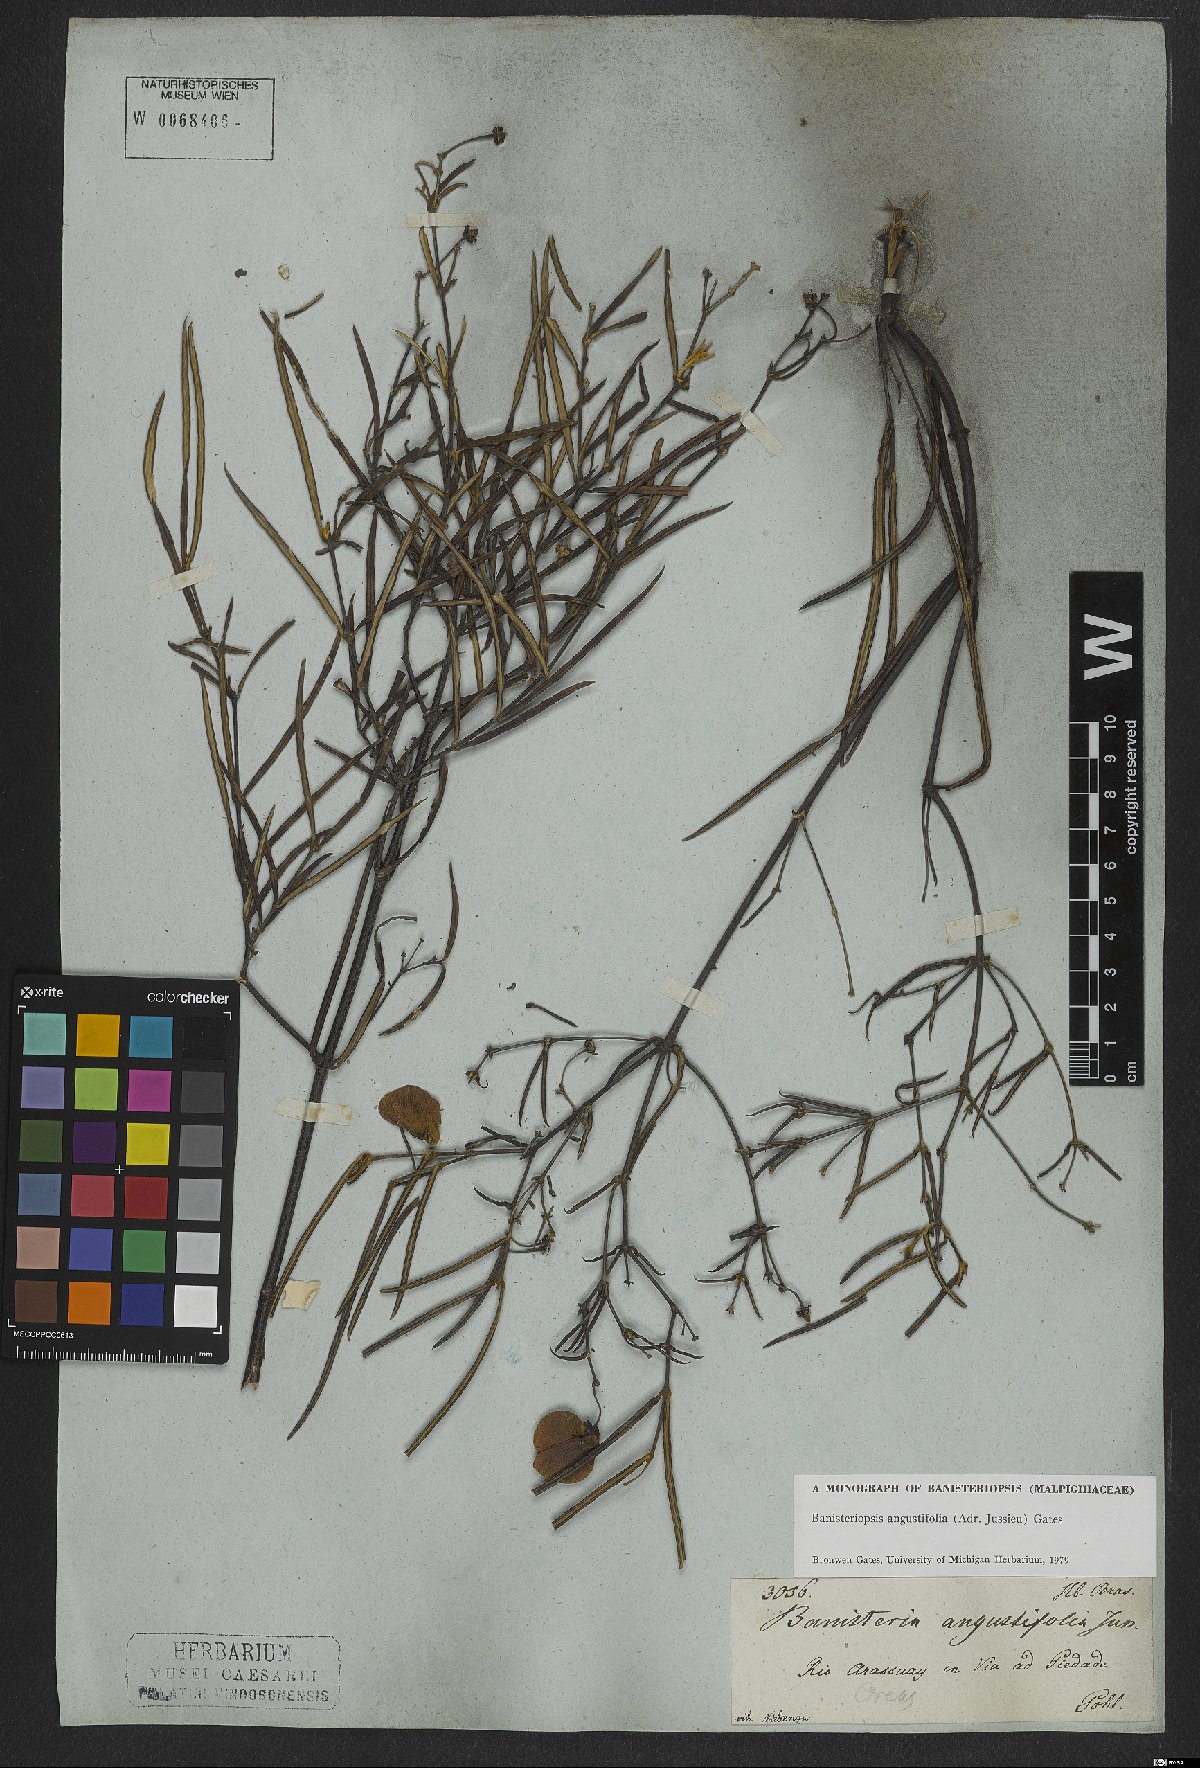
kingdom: Plantae
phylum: Tracheophyta
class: Magnoliopsida
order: Malpighiales
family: Malpighiaceae
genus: Banisteriopsis
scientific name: Banisteriopsis angustifolia
